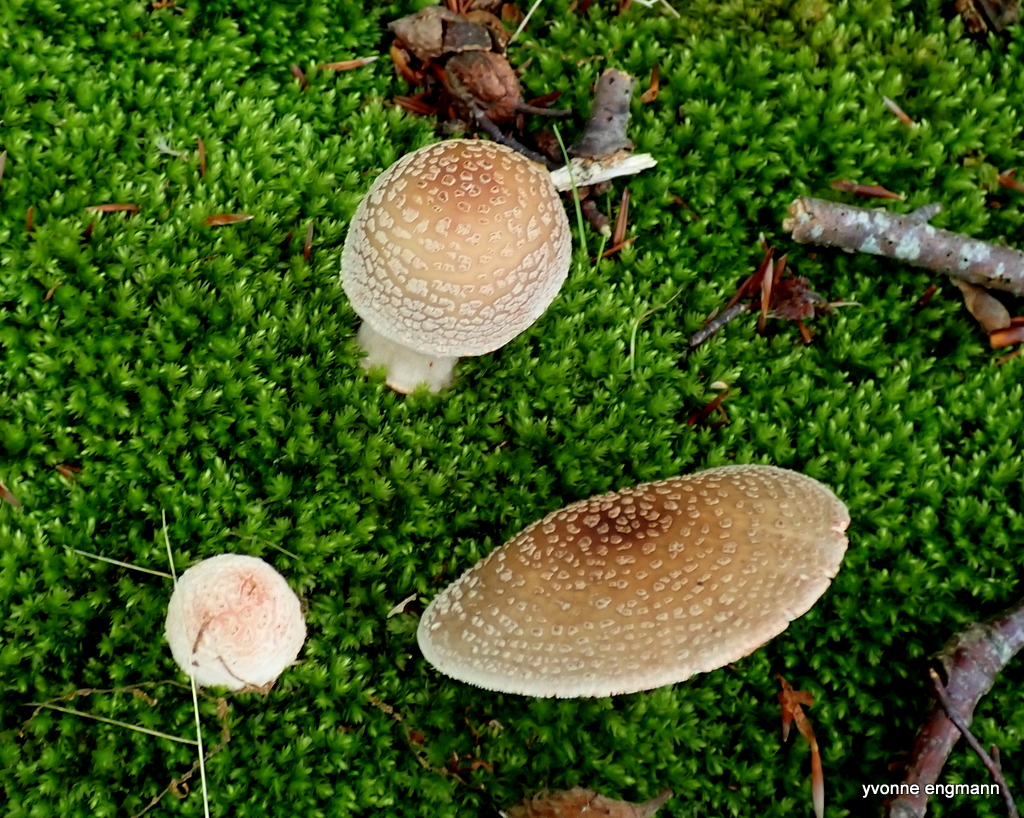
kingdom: Fungi
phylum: Basidiomycota
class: Agaricomycetes
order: Agaricales
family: Amanitaceae
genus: Amanita
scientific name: Amanita rubescens
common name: rødmende fluesvamp
